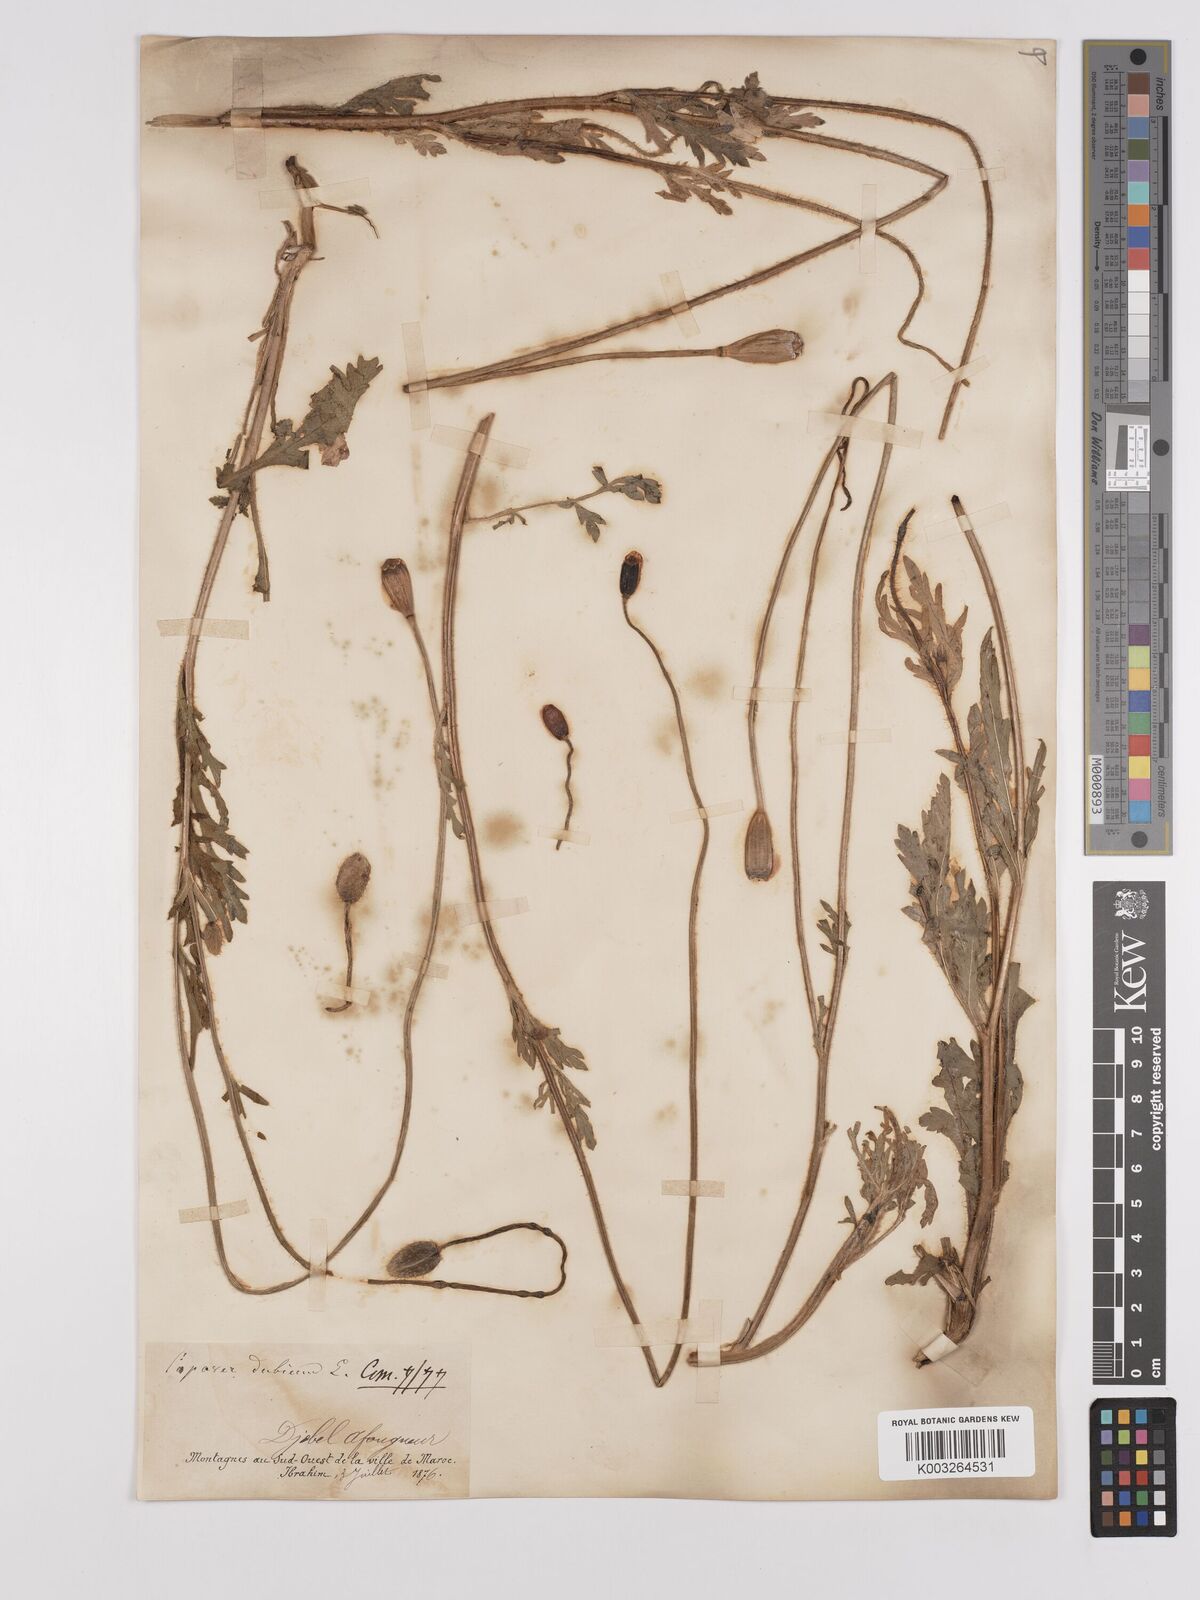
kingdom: Plantae
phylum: Tracheophyta
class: Magnoliopsida
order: Ranunculales
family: Papaveraceae
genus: Papaver
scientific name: Papaver dubium
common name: Long-headed poppy
